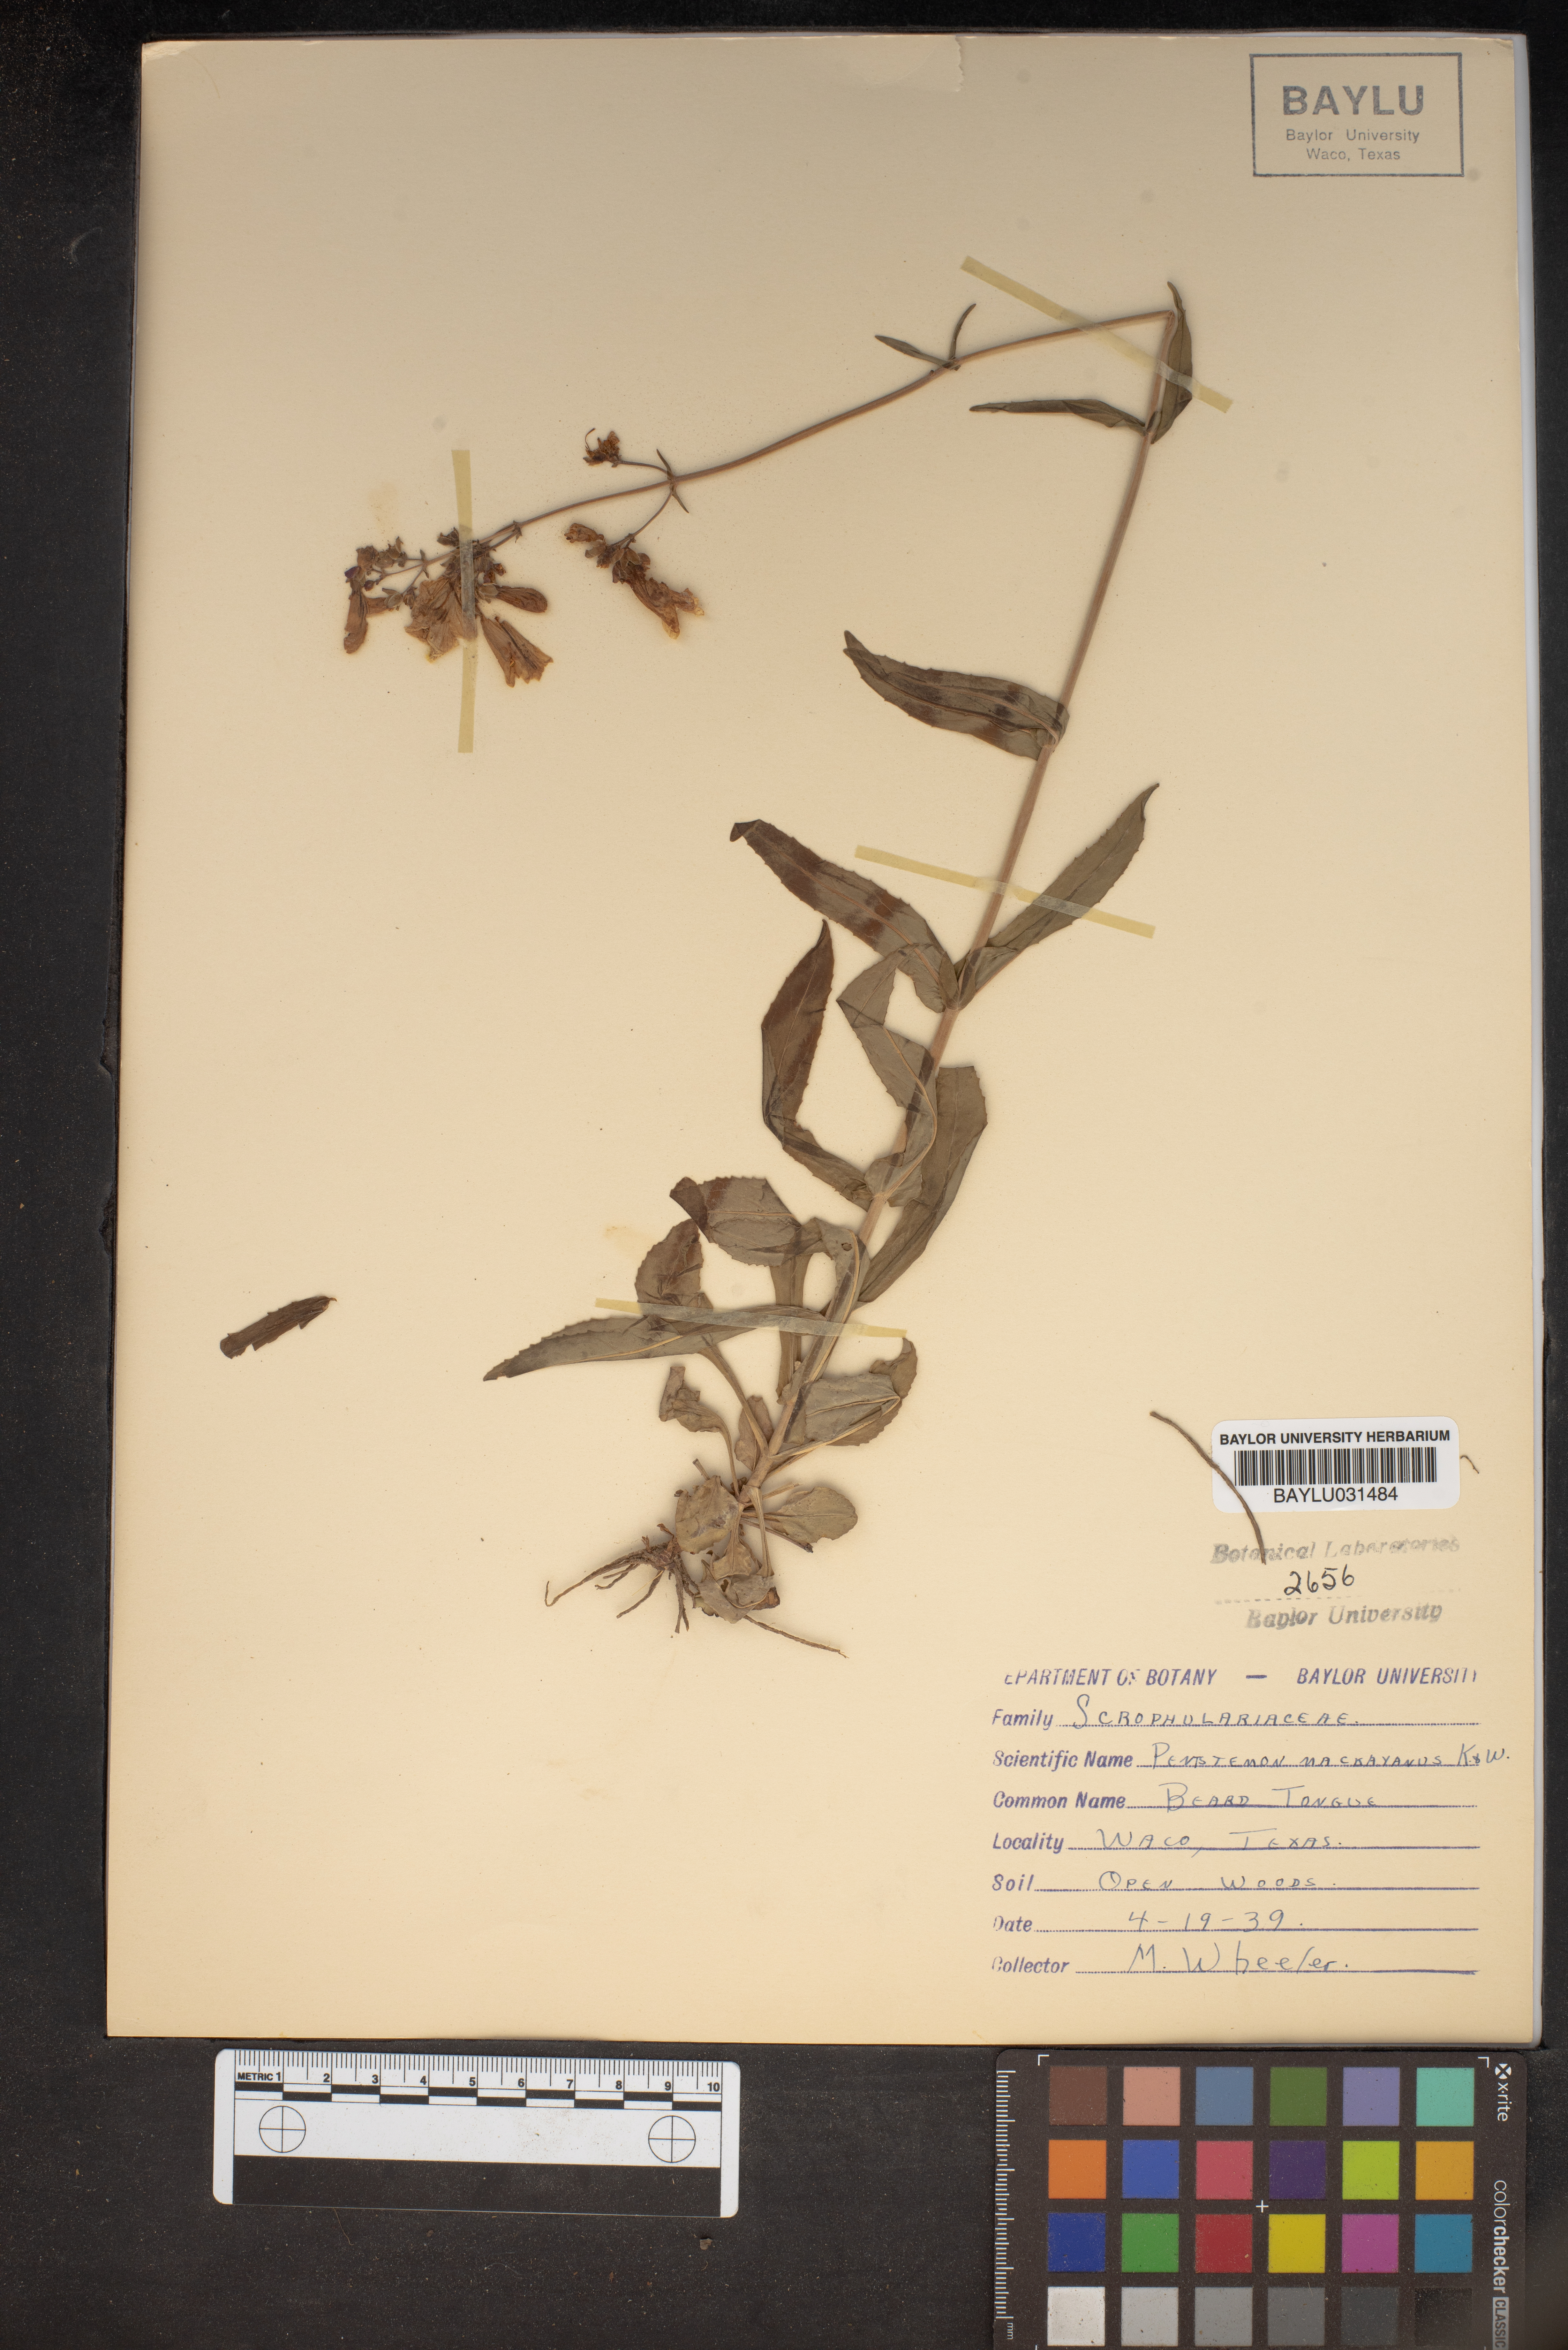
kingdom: Plantae
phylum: Tracheophyta
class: Magnoliopsida
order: Lamiales
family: Plantaginaceae
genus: Penstemon
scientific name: Penstemon hirsutus
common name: Hairy beardtongue
